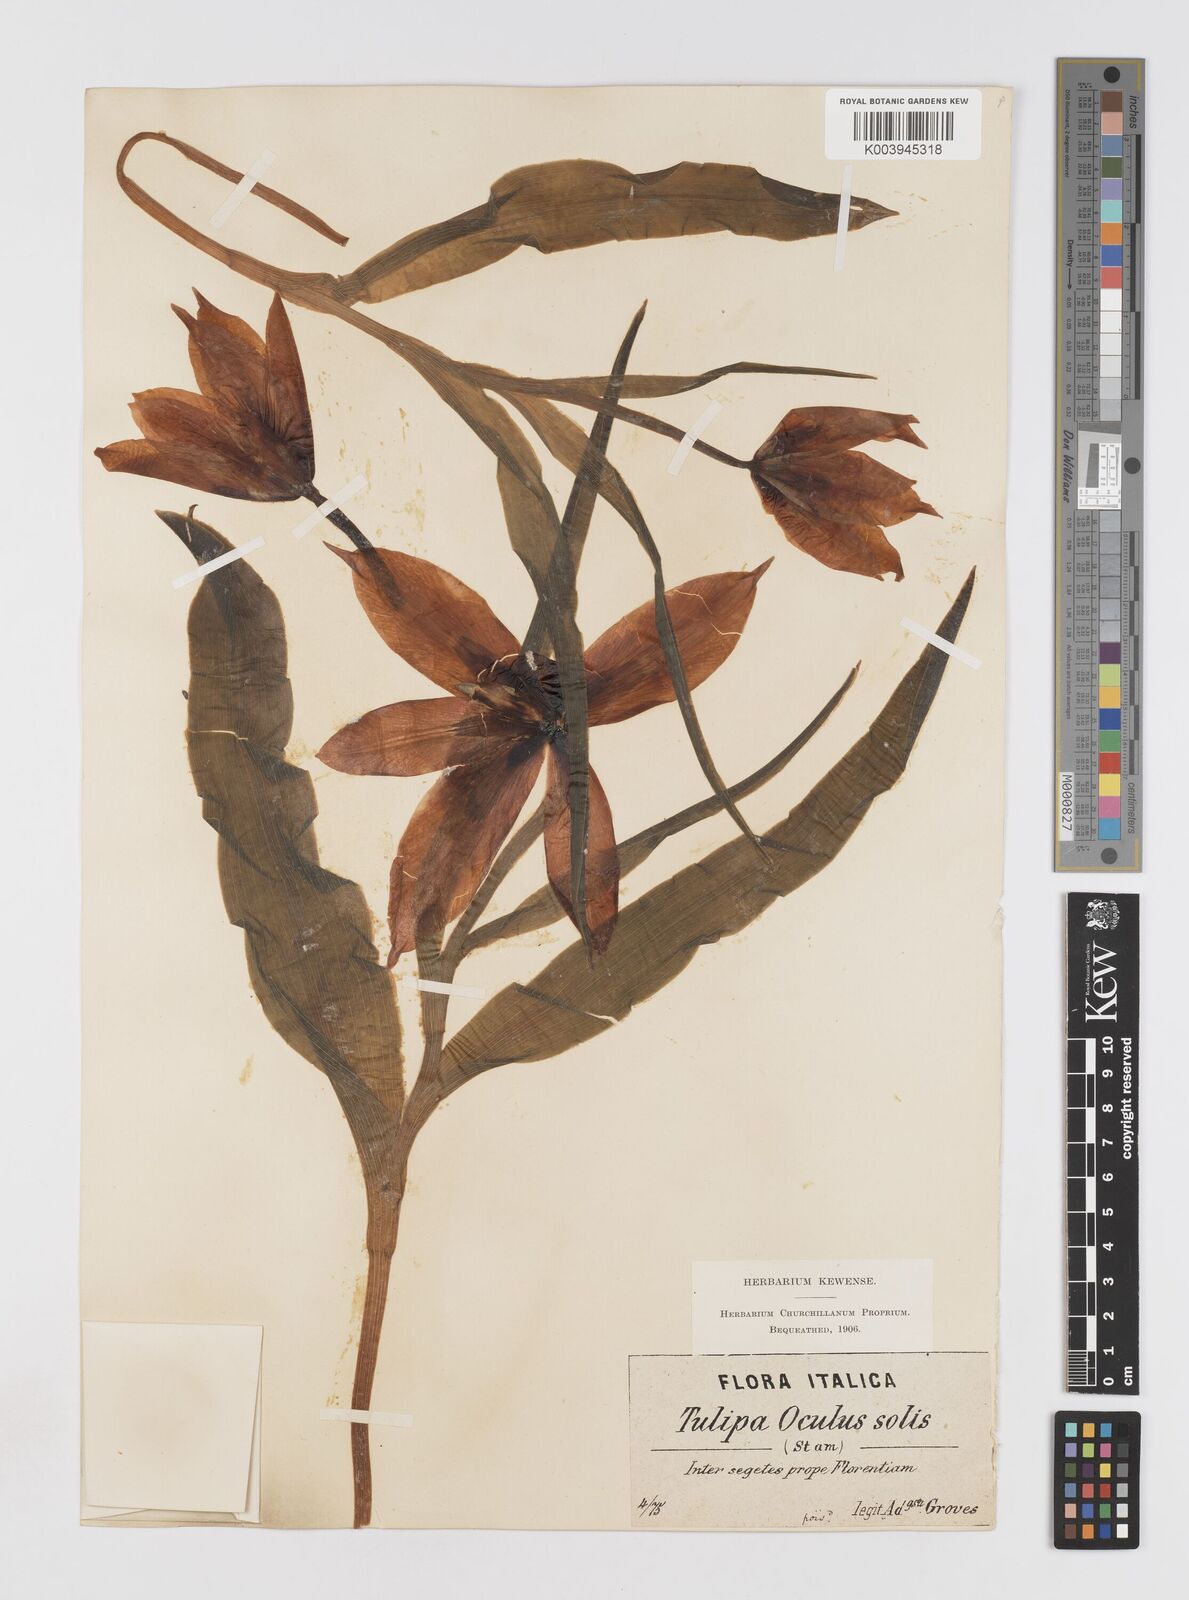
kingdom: Plantae
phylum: Tracheophyta
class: Liliopsida
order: Liliales
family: Liliaceae
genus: Tulipa
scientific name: Tulipa agenensis
